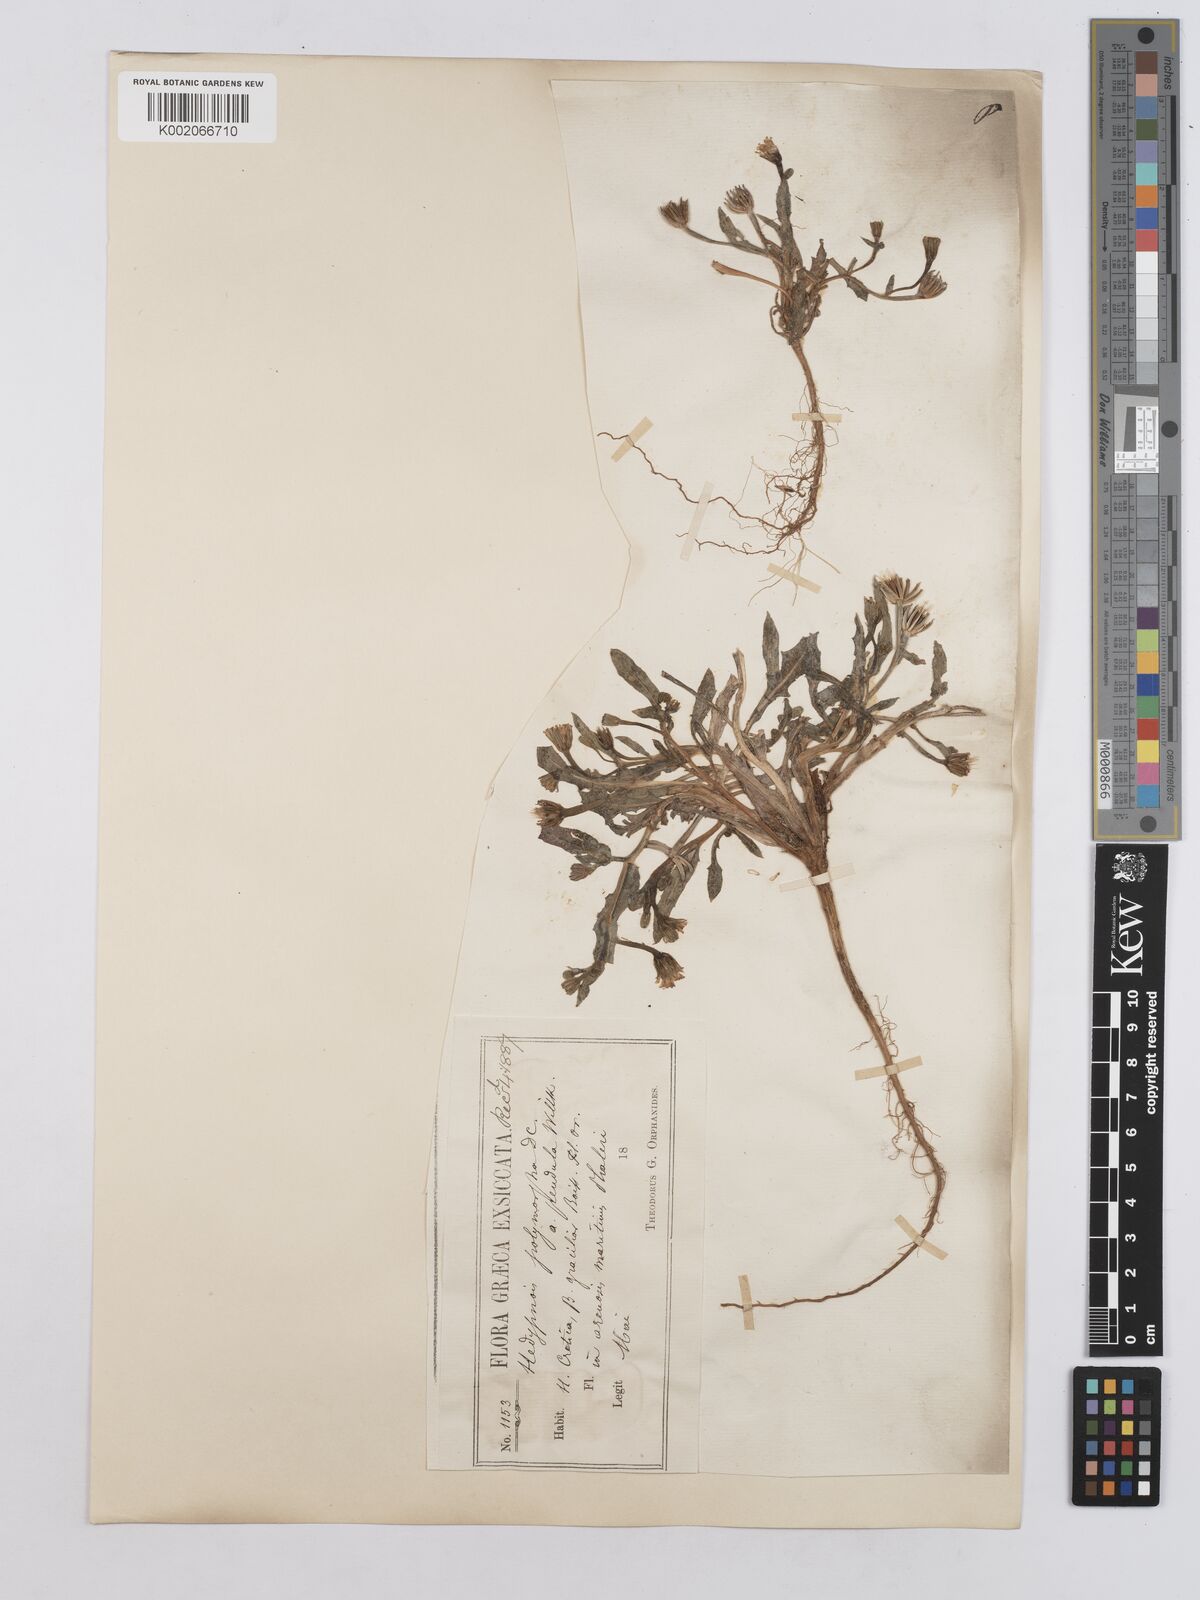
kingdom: Plantae
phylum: Tracheophyta
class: Magnoliopsida
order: Asterales
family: Asteraceae
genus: Hedypnois
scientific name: Hedypnois rhagadioloides
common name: Cretan weed
